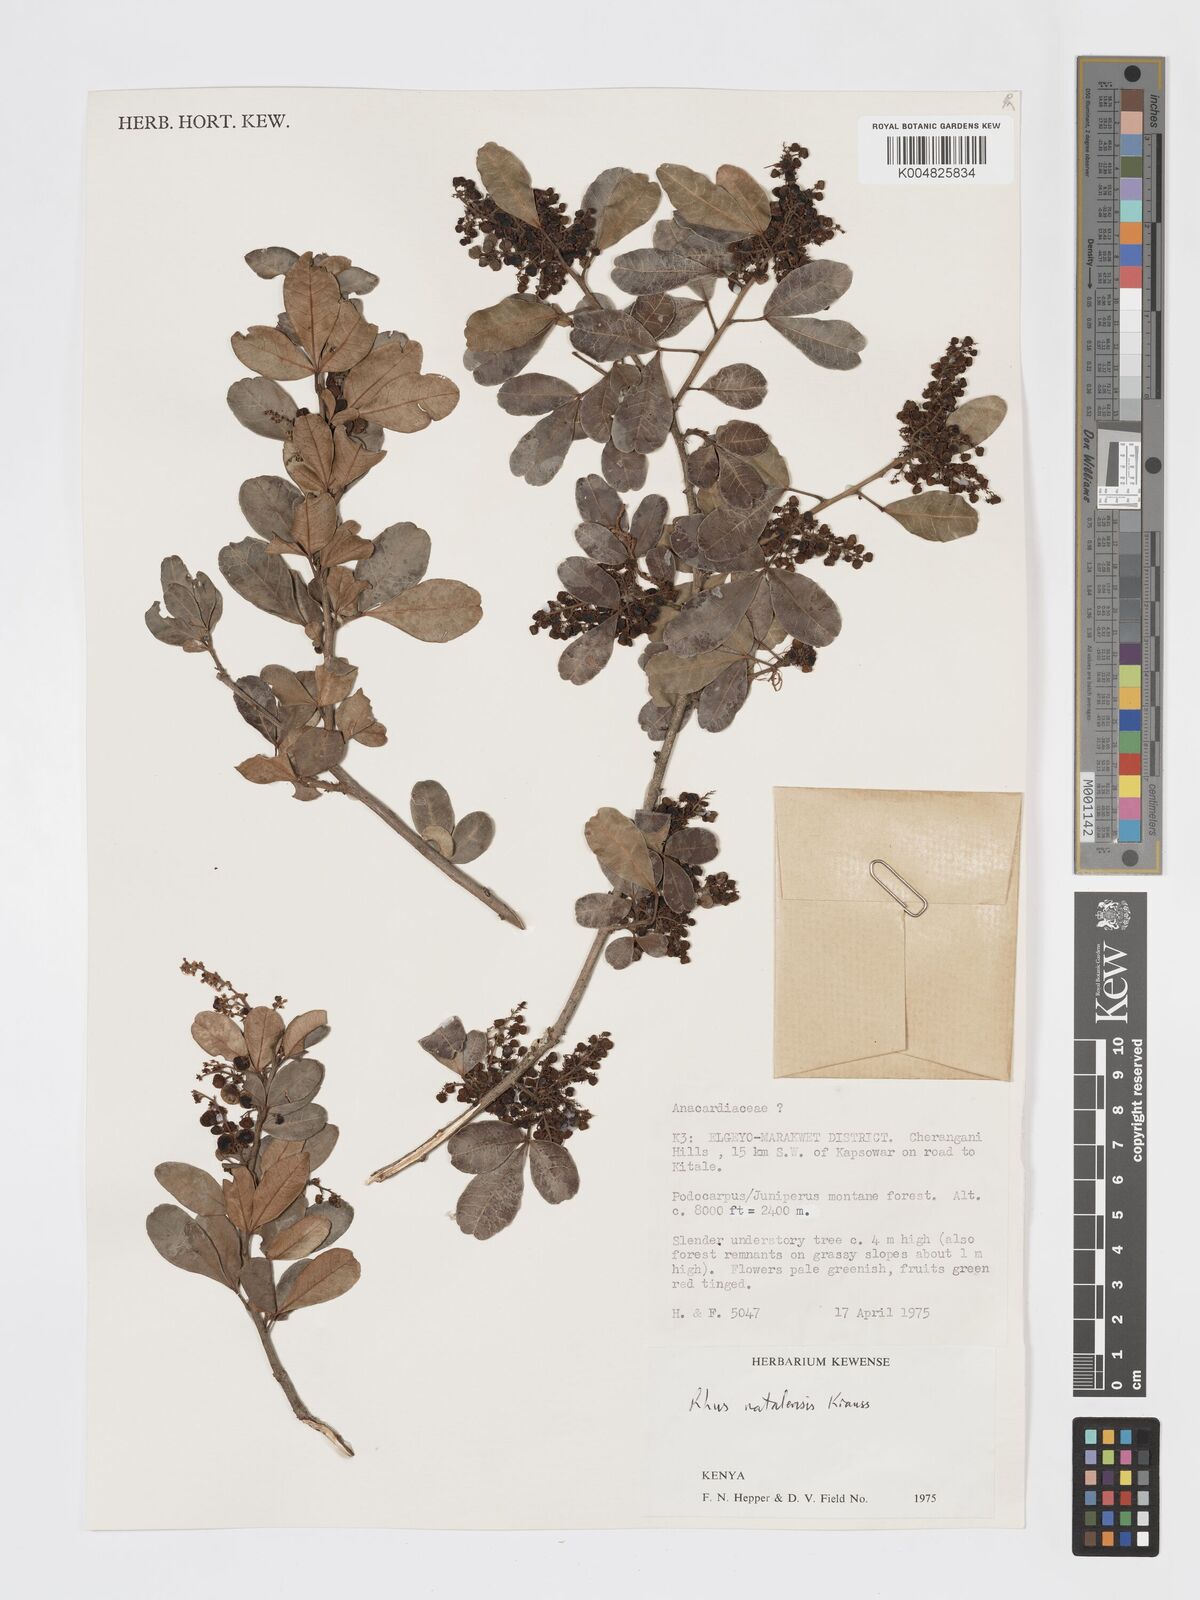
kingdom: Plantae
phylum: Tracheophyta
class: Magnoliopsida
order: Sapindales
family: Anacardiaceae
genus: Searsia
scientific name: Searsia natalensis
